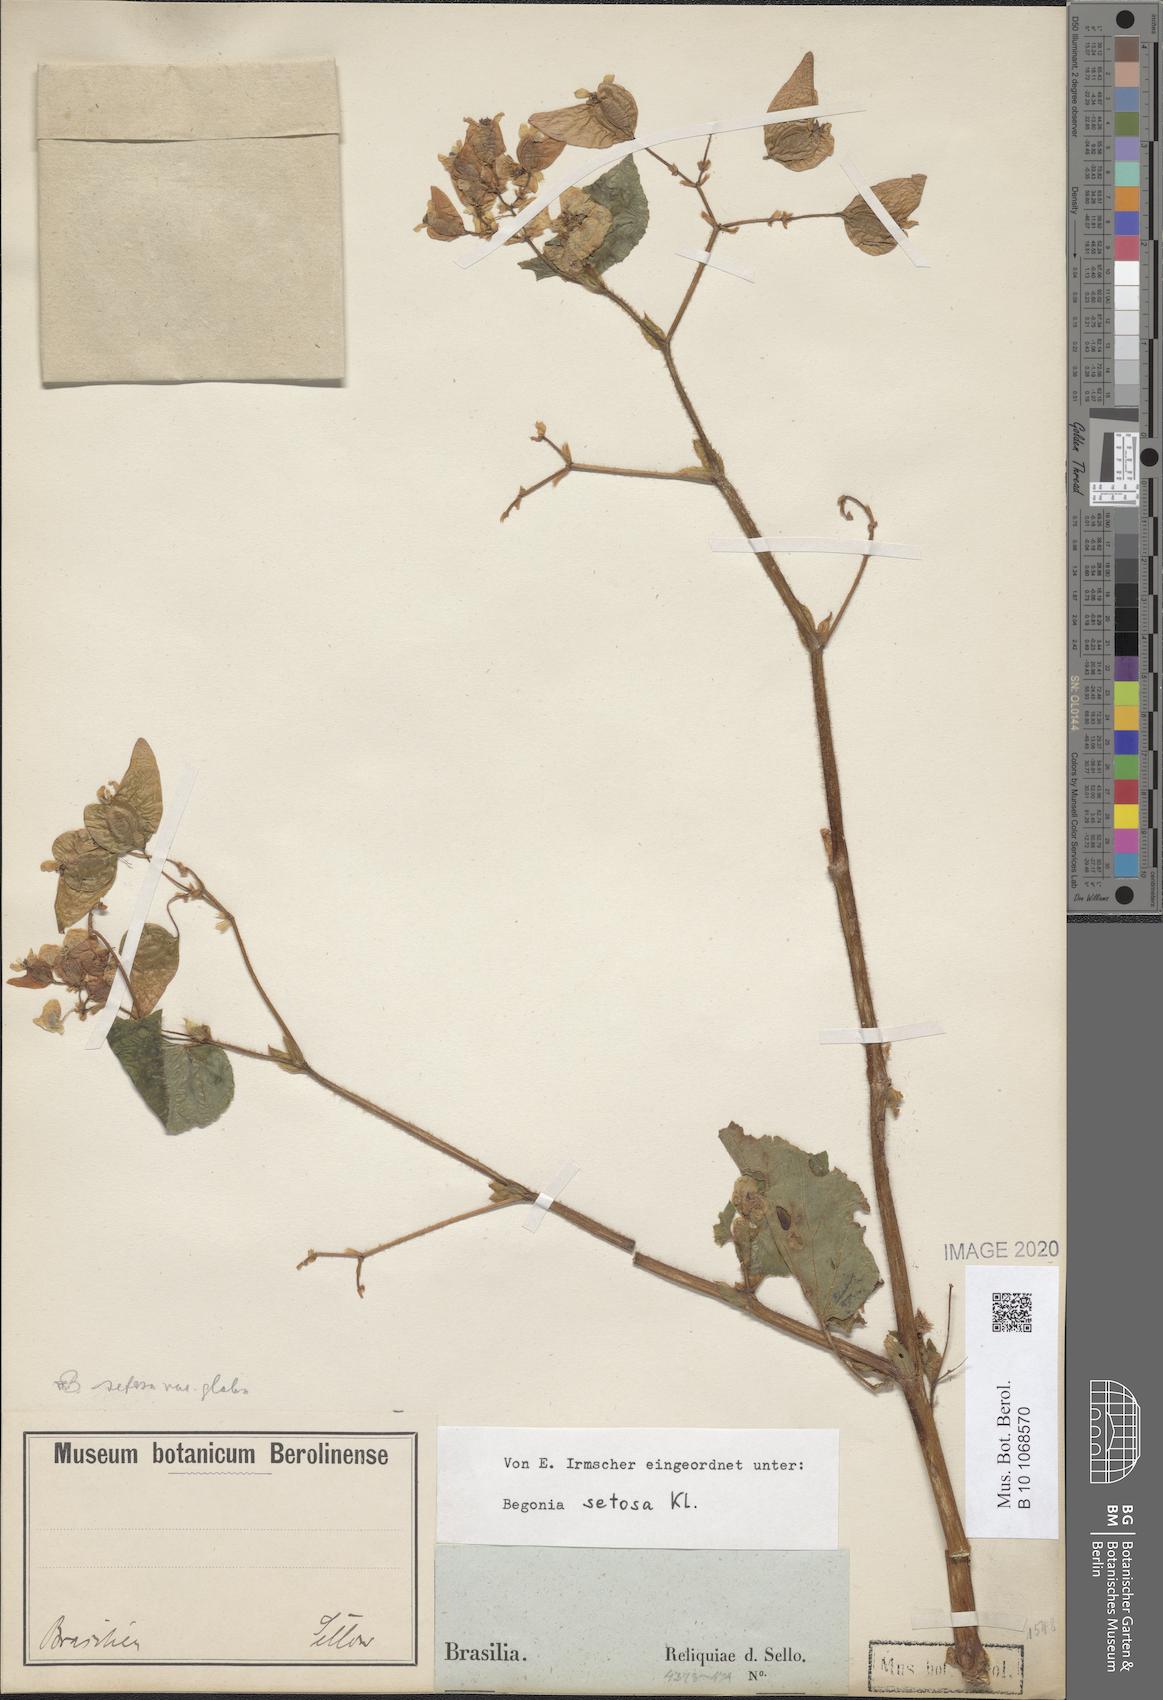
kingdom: Plantae
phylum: Tracheophyta
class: Magnoliopsida
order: Cucurbitales
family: Begoniaceae
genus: Begonia
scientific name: Begonia fischeri
